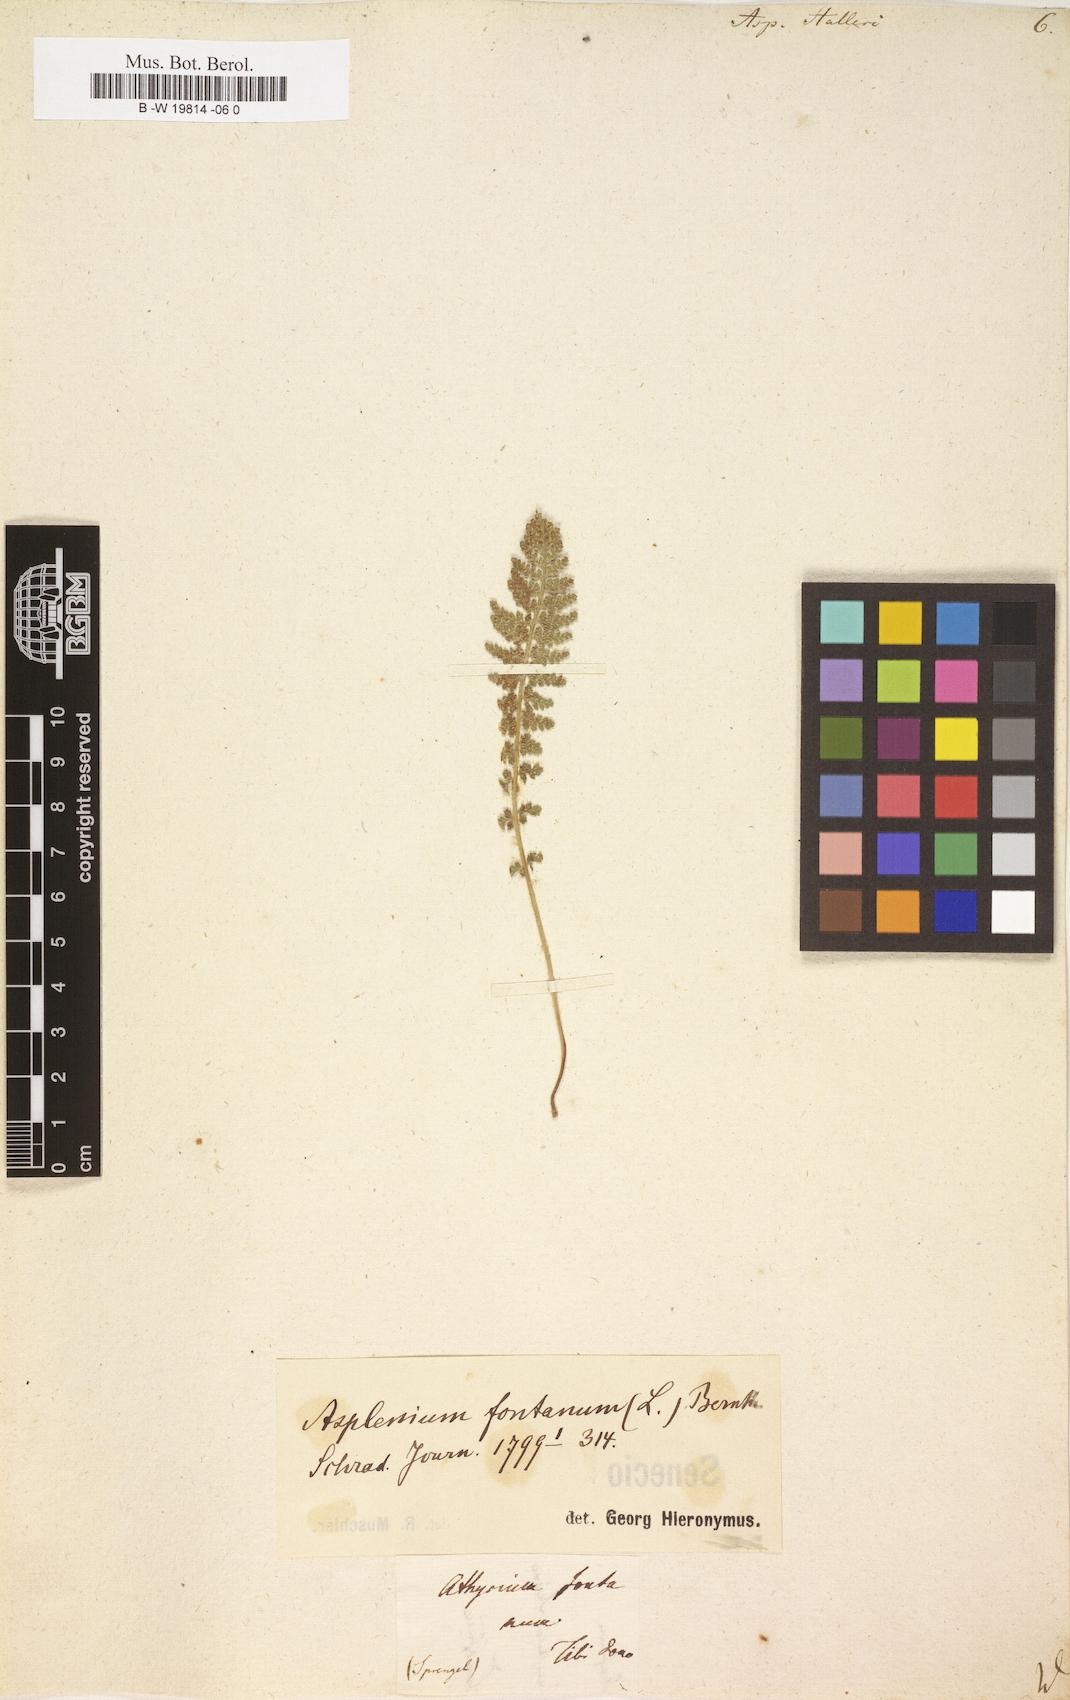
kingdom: Plantae
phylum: Tracheophyta
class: Polypodiopsida
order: Polypodiales
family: Aspleniaceae
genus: Asplenium
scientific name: Asplenium fontanum
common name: Fountain spleenwort
